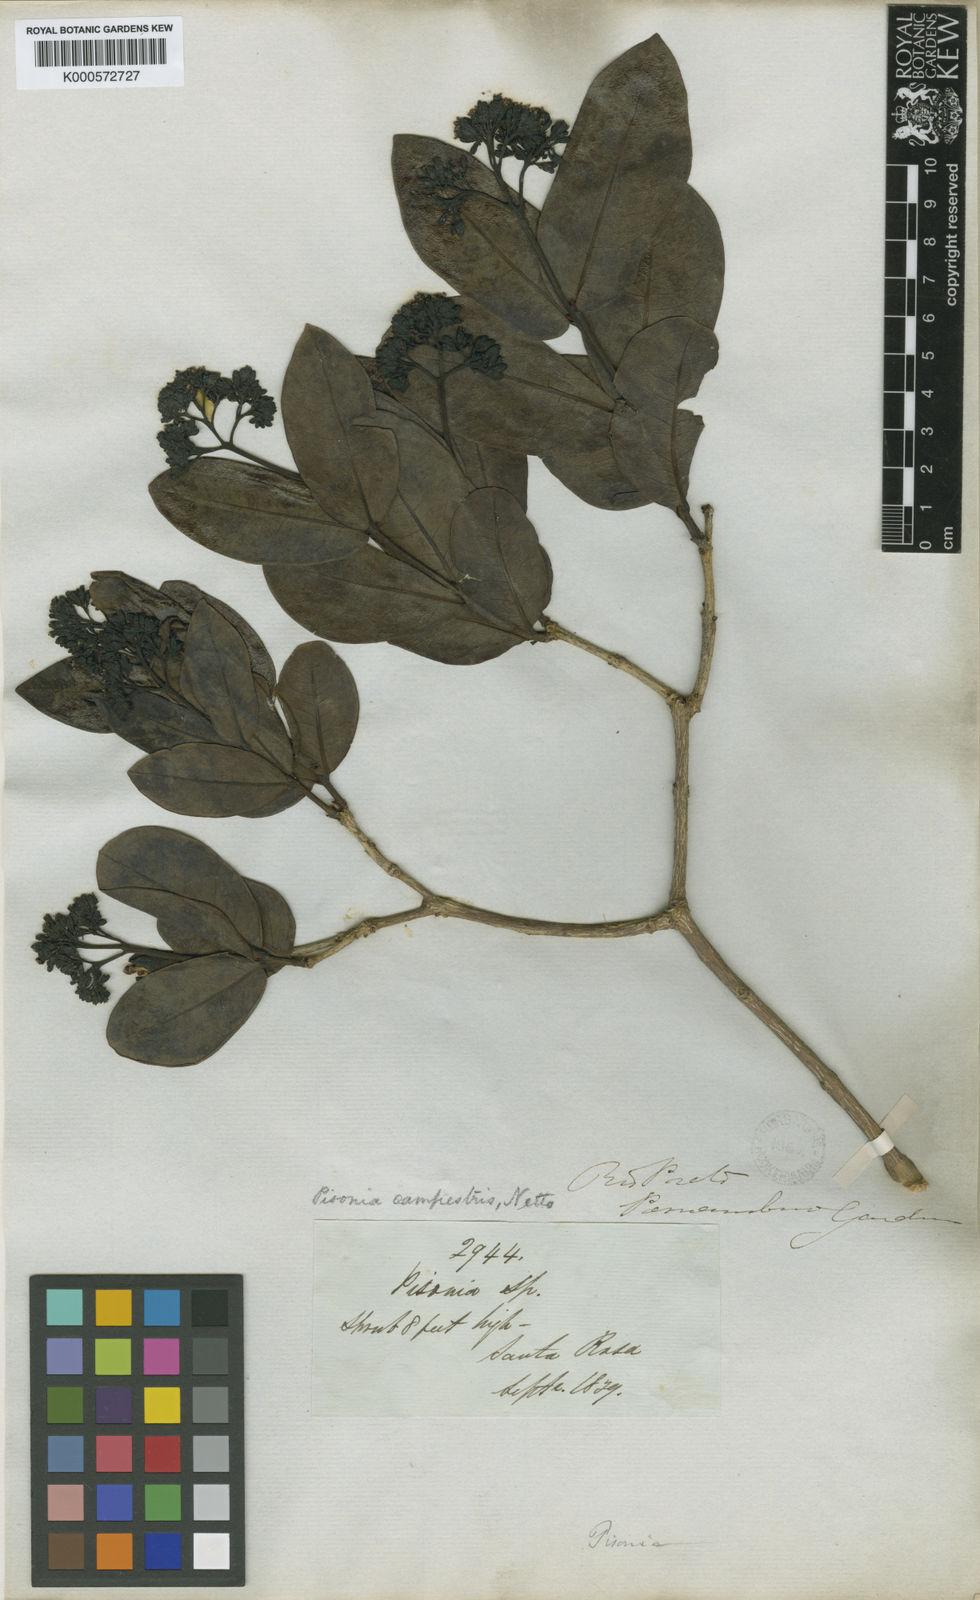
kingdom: Plantae
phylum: Tracheophyta
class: Magnoliopsida
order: Caryophyllales
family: Nyctaginaceae
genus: Guapira
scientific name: Guapira campestris
